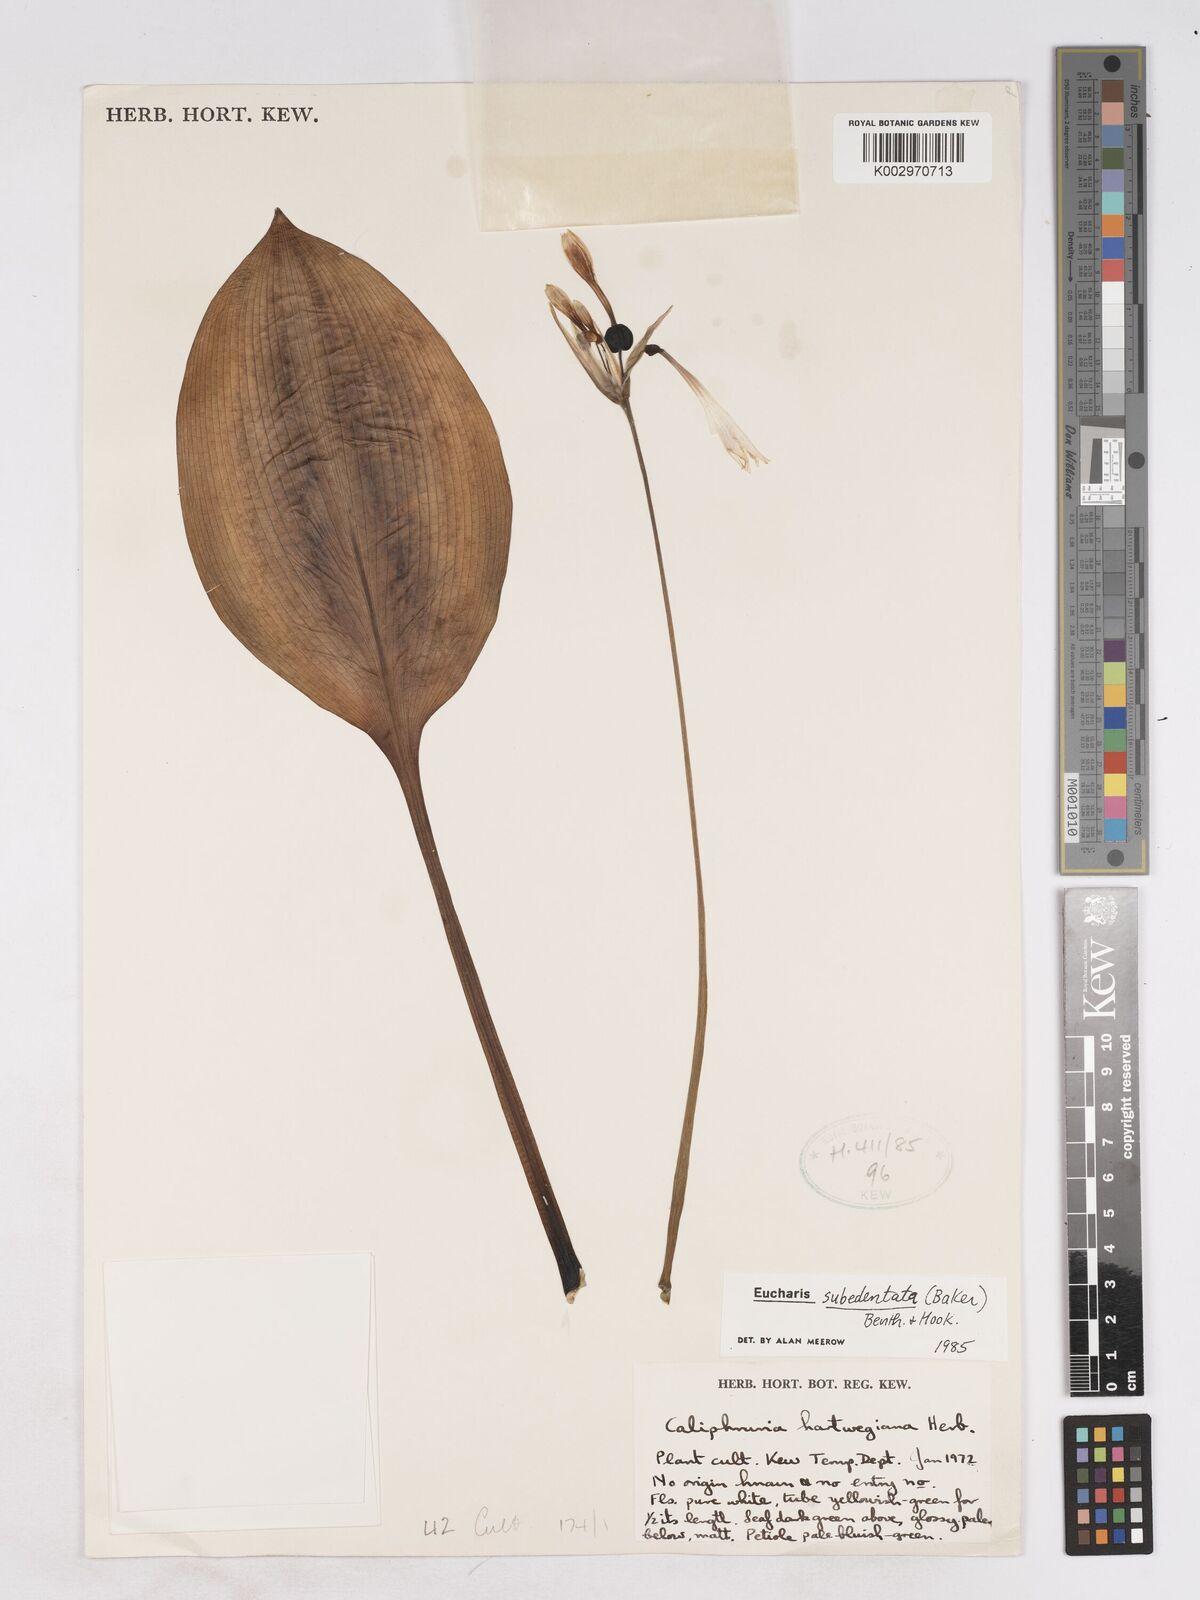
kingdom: Plantae
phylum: Tracheophyta
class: Liliopsida
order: Asparagales
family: Amaryllidaceae
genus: Urceolina
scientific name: Urceolina subedentata
